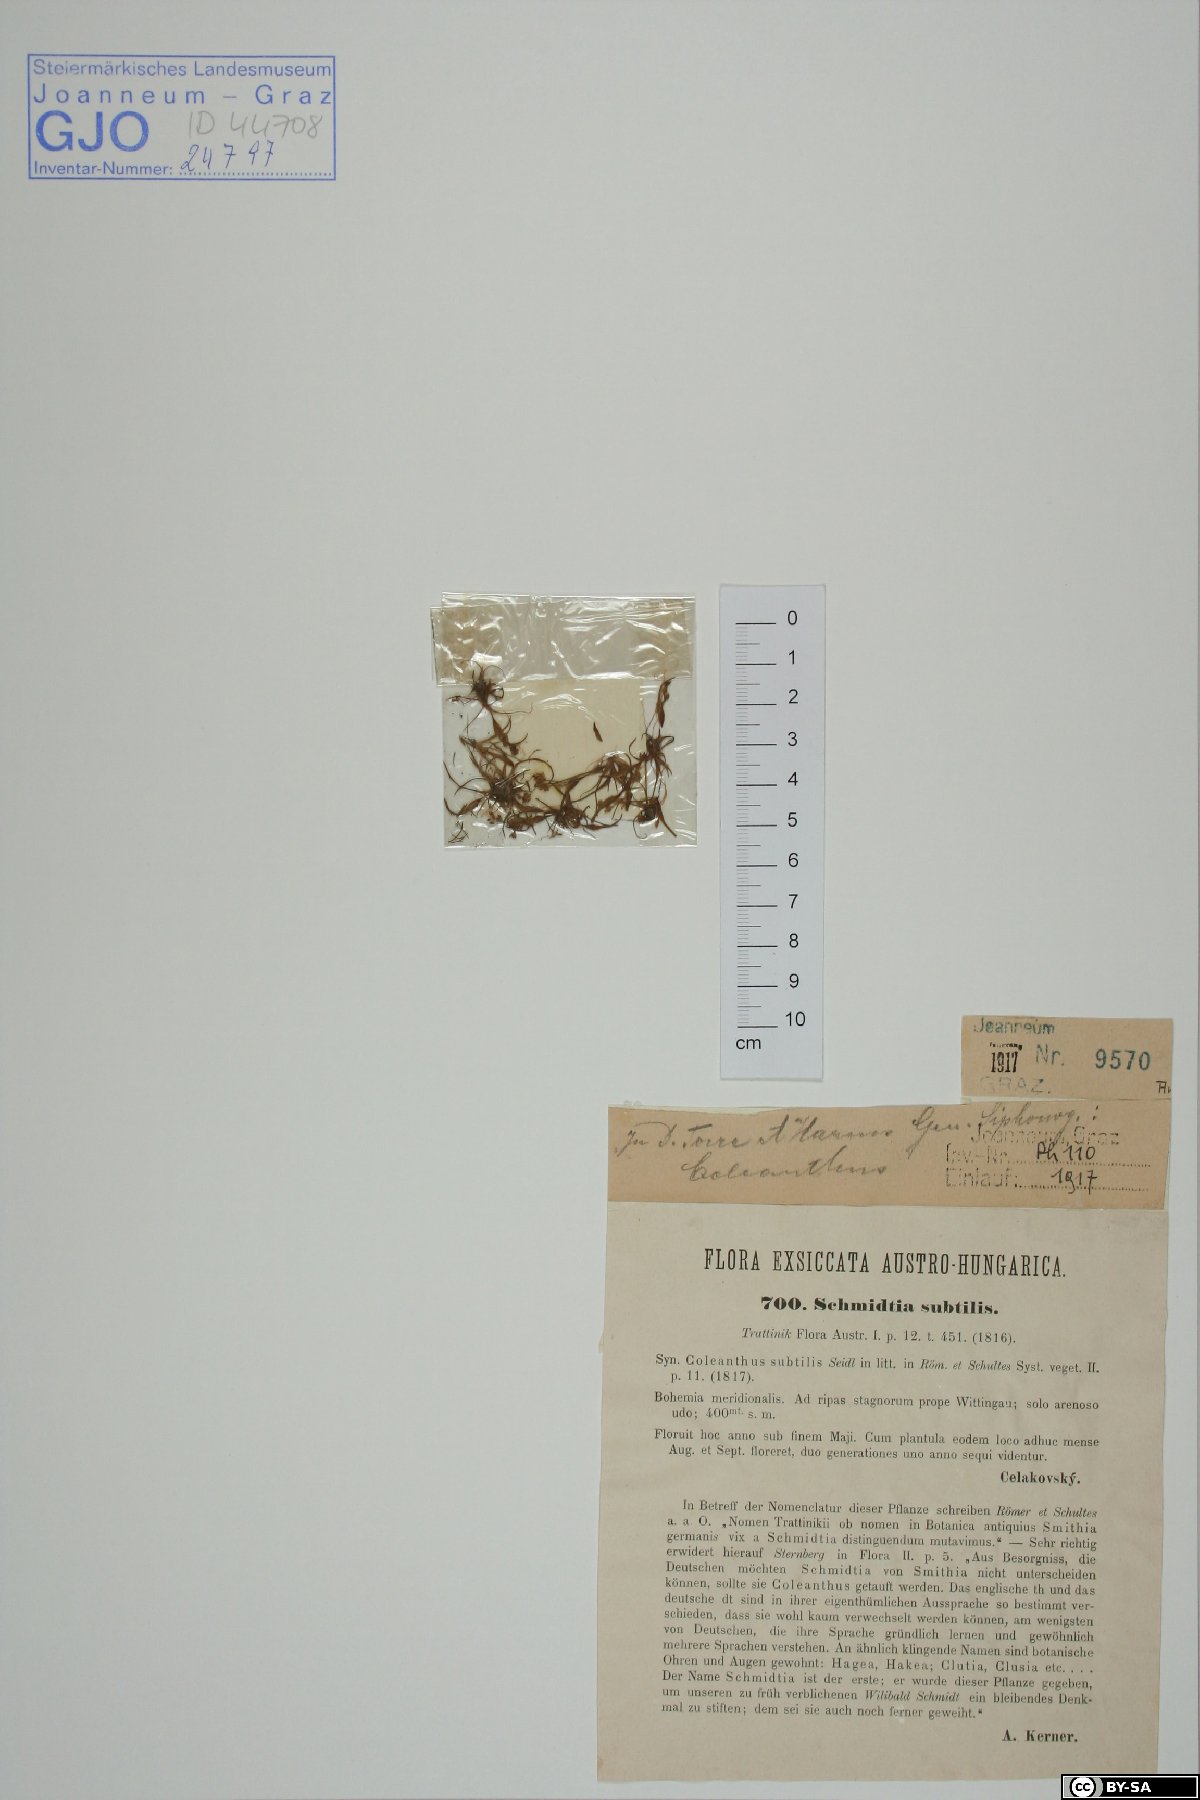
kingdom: Plantae
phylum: Tracheophyta
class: Liliopsida
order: Poales
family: Poaceae
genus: Coleanthus
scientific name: Coleanthus subtilis
